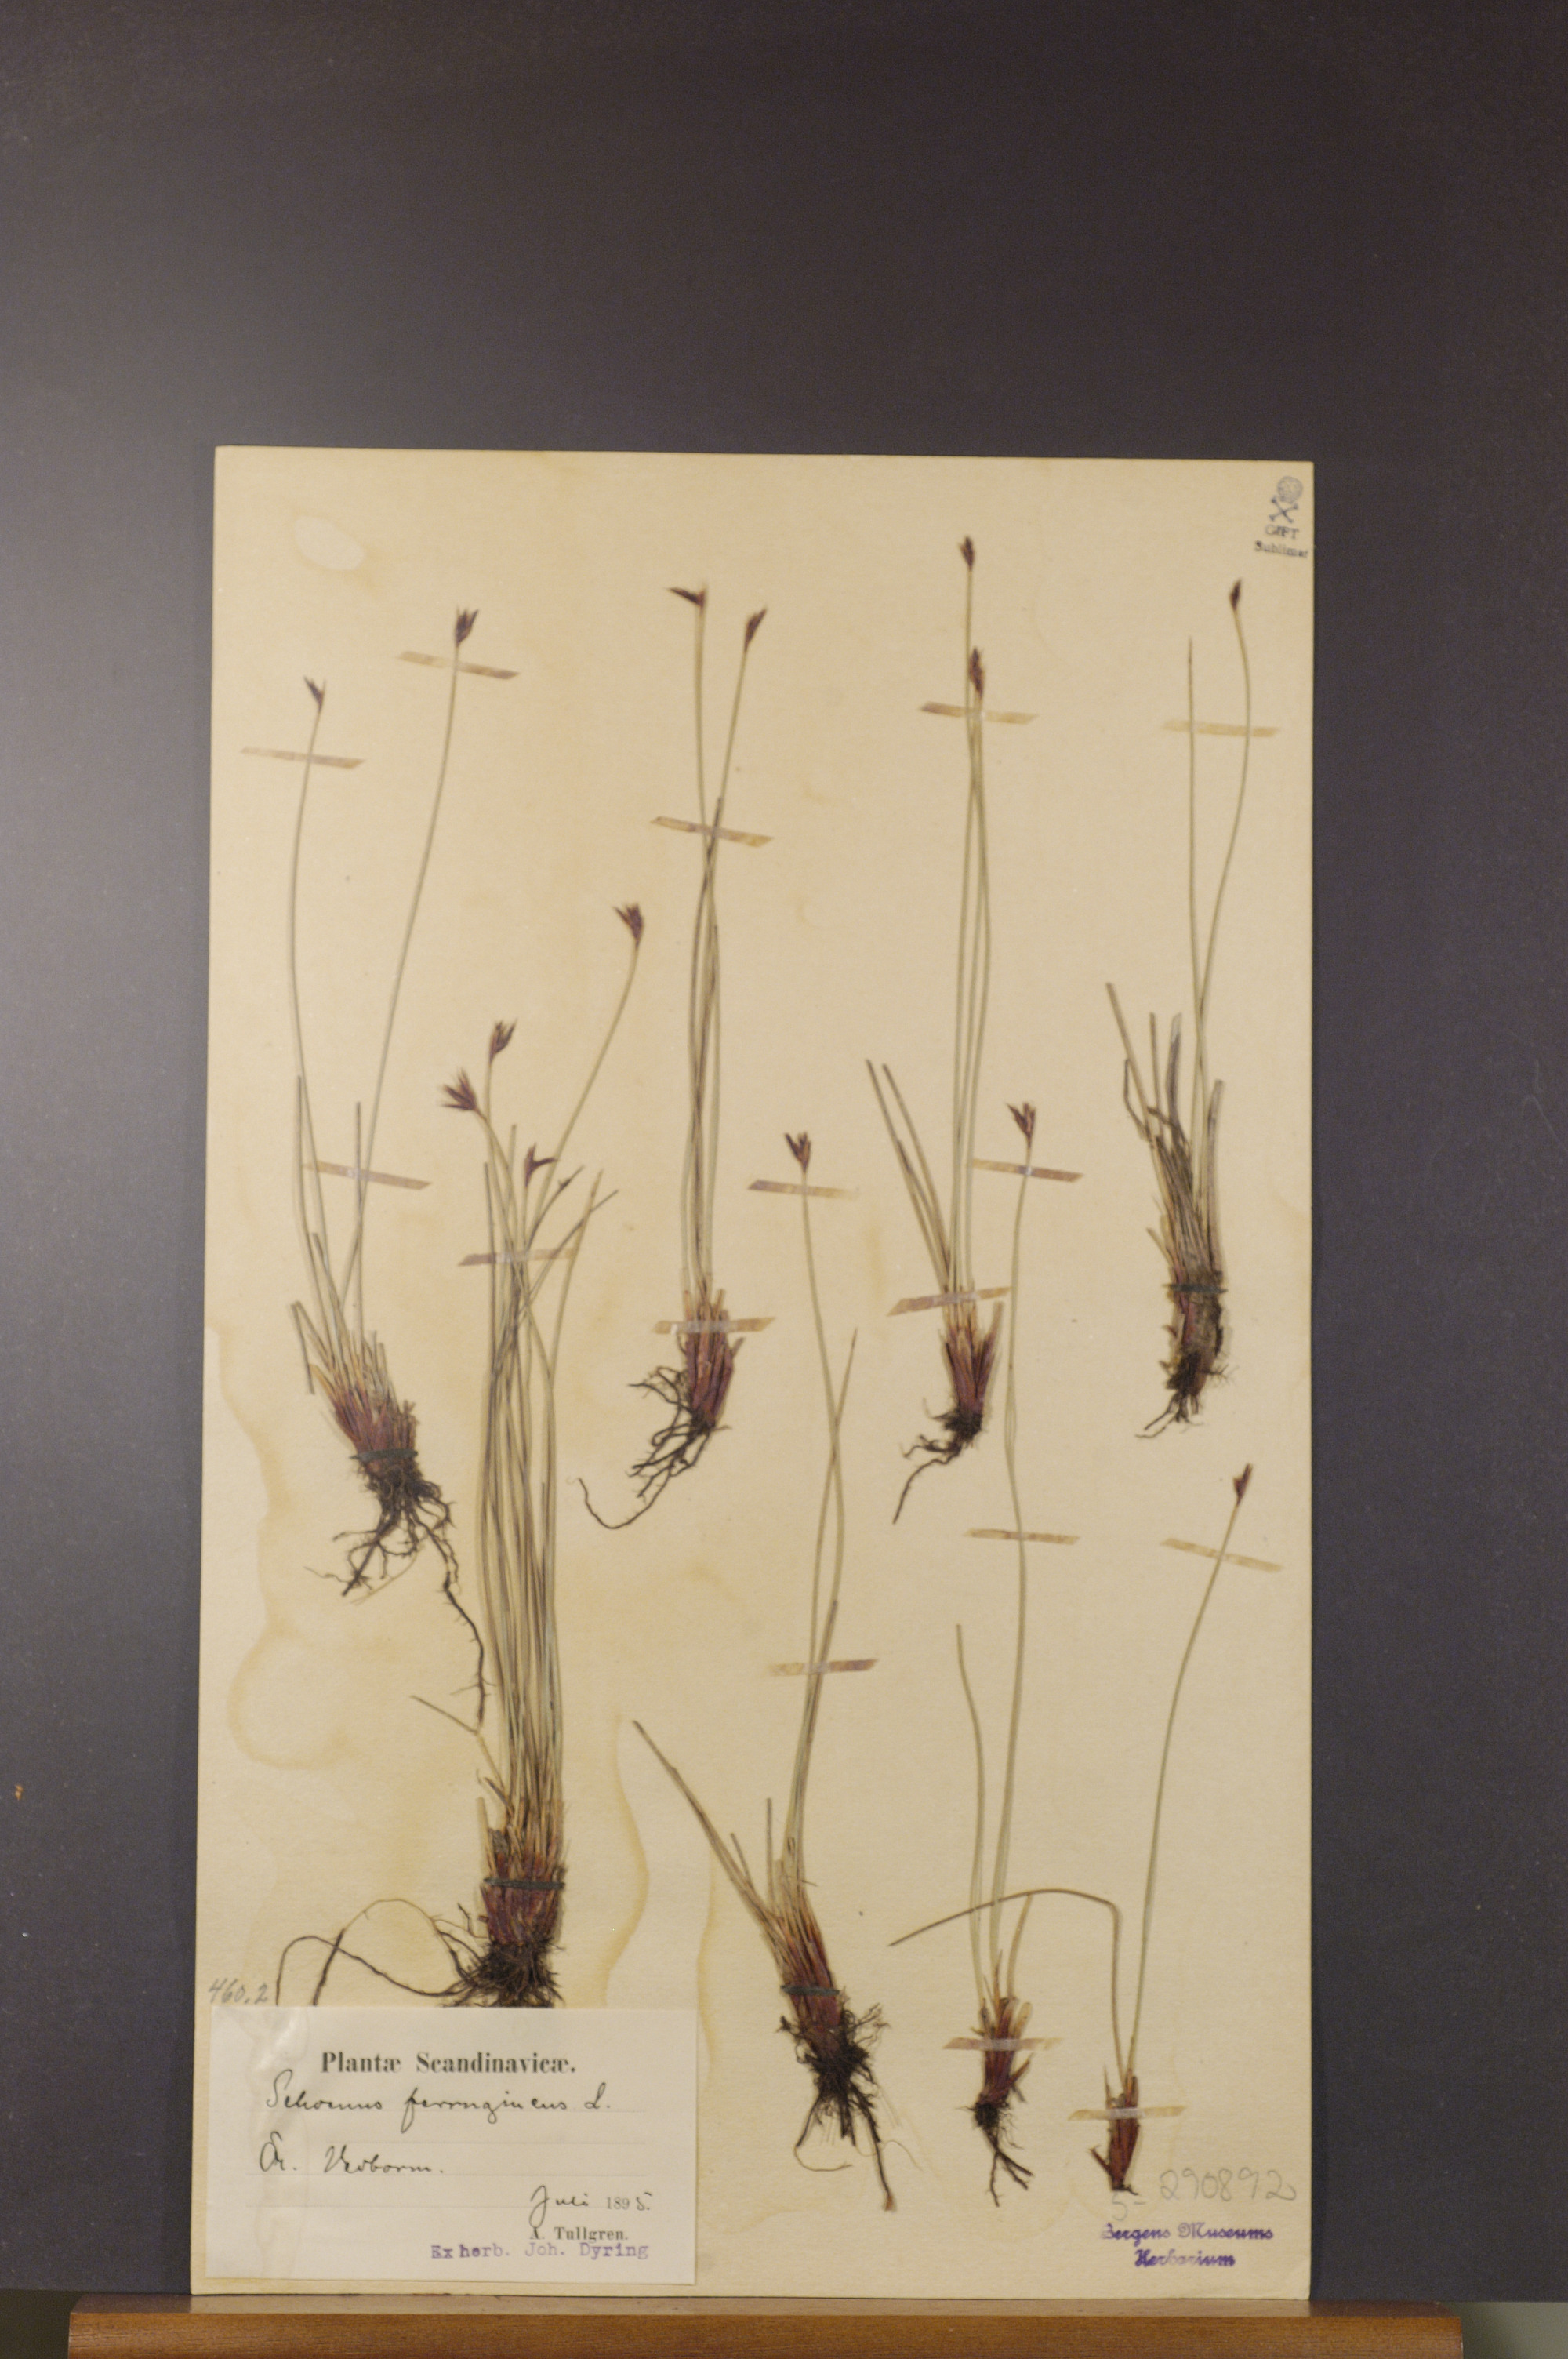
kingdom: Plantae
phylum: Tracheophyta
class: Liliopsida
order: Poales
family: Cyperaceae
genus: Schoenus
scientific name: Schoenus ferrugineus
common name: Brown bog-rush
